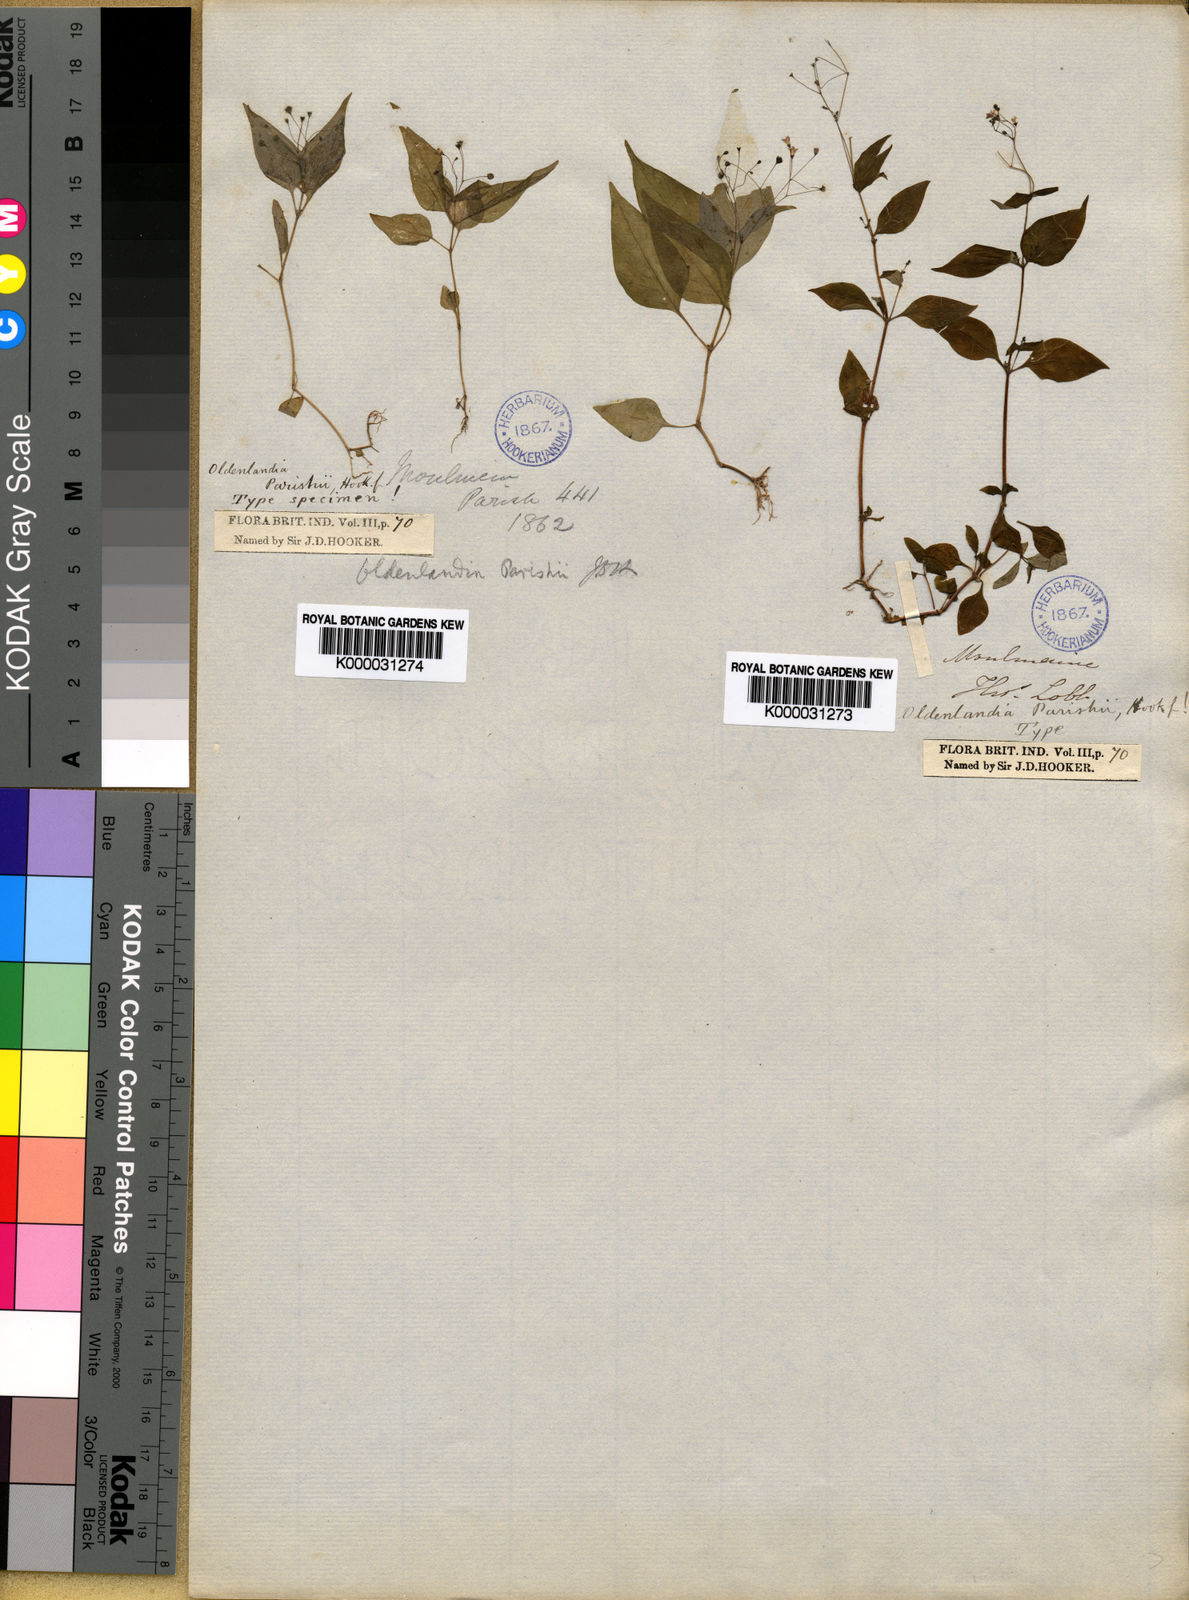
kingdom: Plantae
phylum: Tracheophyta
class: Magnoliopsida
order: Gentianales
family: Rubiaceae
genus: Oldenlandia
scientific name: Oldenlandia parishii
